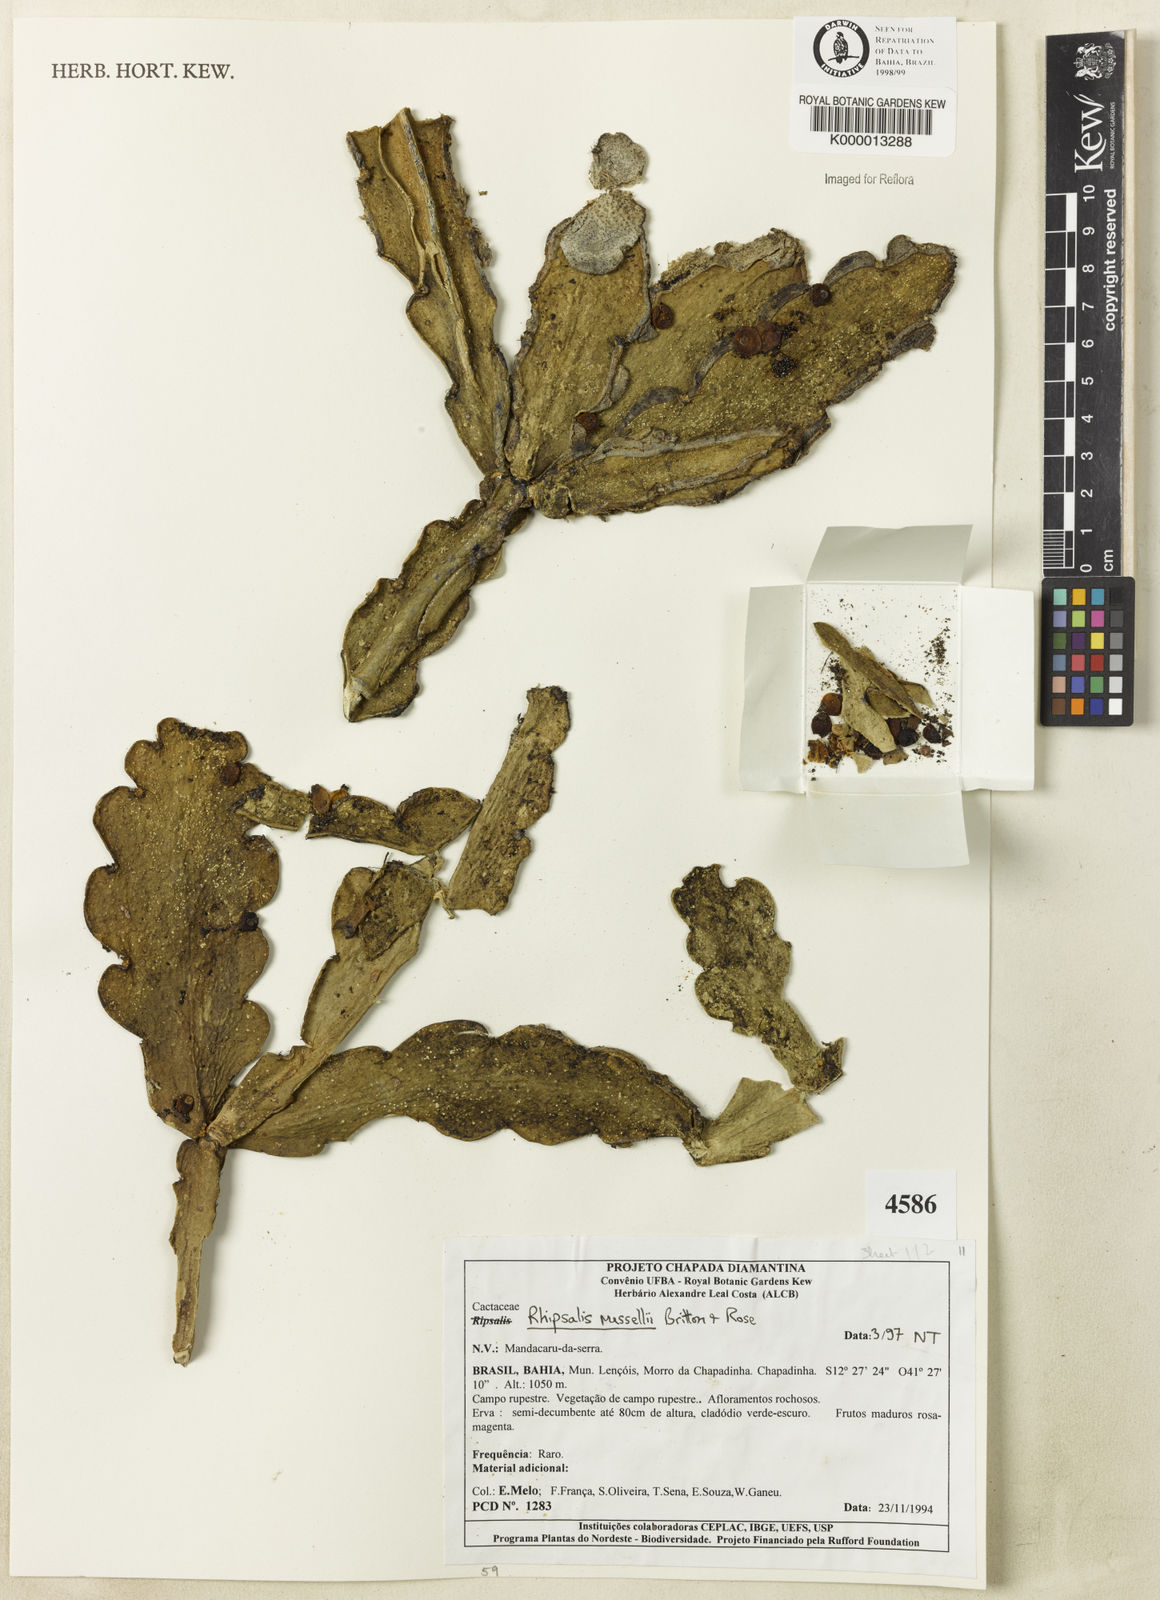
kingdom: Plantae
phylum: Tracheophyta
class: Magnoliopsida
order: Caryophyllales
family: Cactaceae
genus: Rhipsalis
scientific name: Rhipsalis russellii
